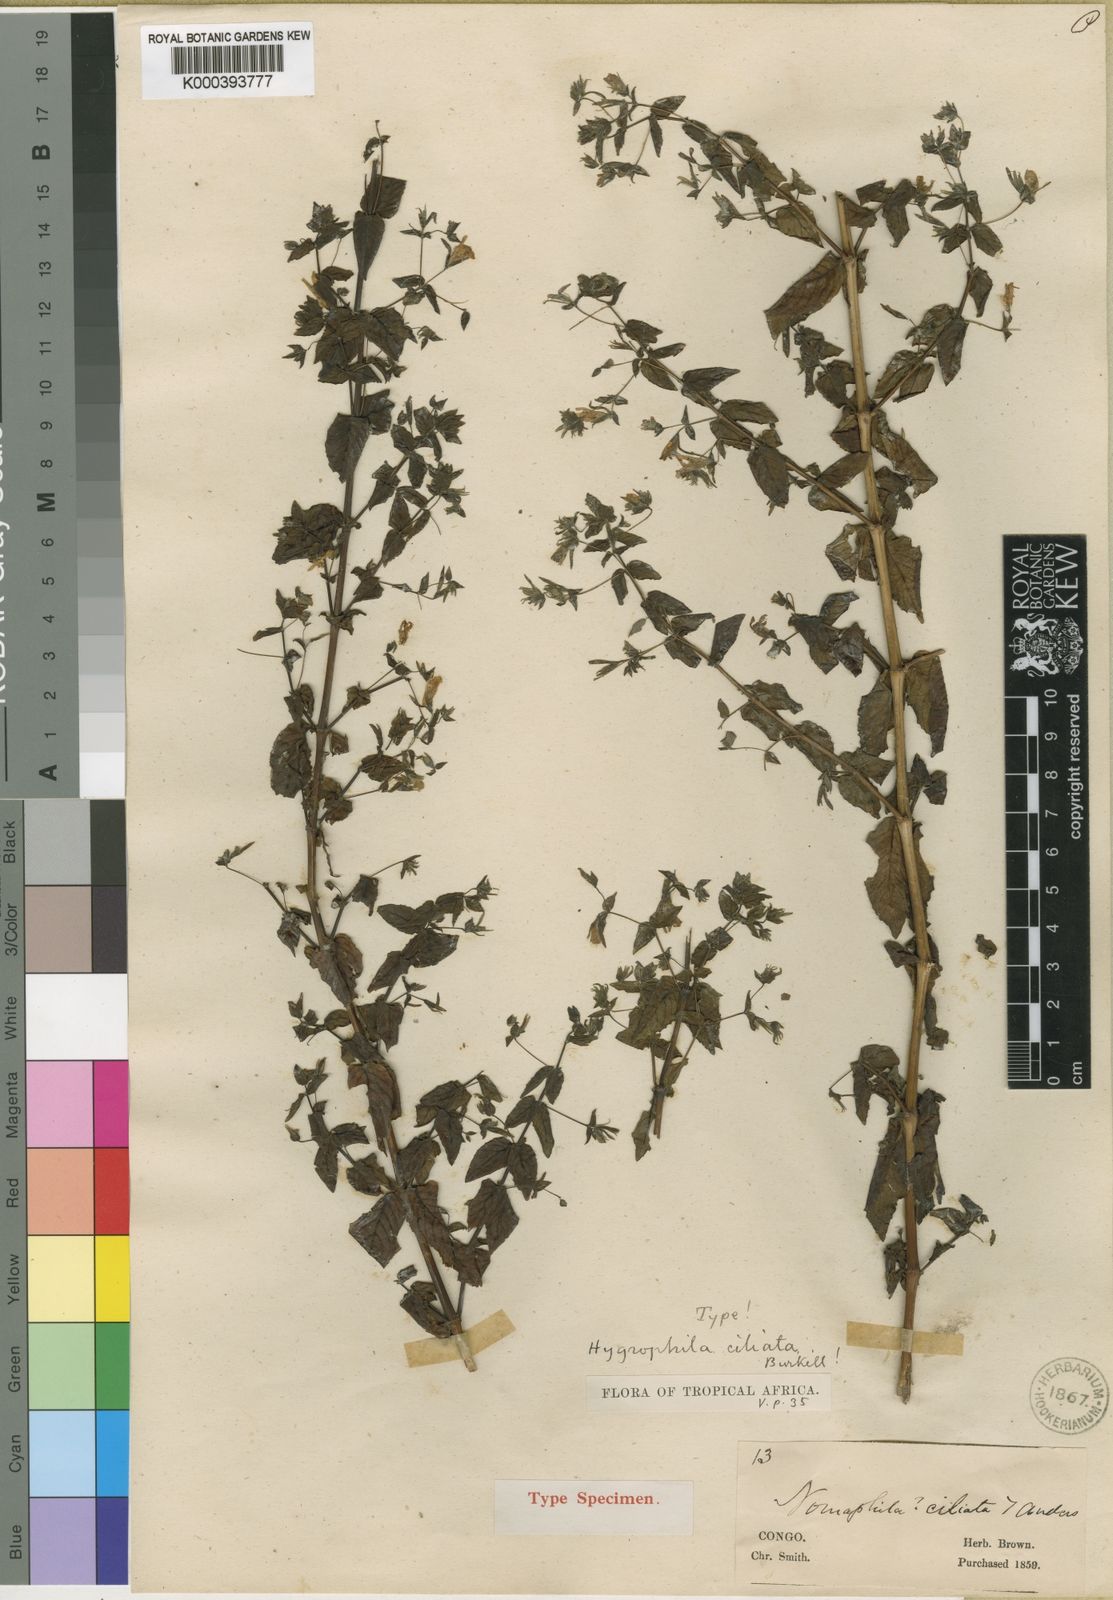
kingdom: Plantae
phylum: Tracheophyta
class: Magnoliopsida
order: Lamiales
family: Acanthaceae
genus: Hygrophila
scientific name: Hygrophila ciliata
